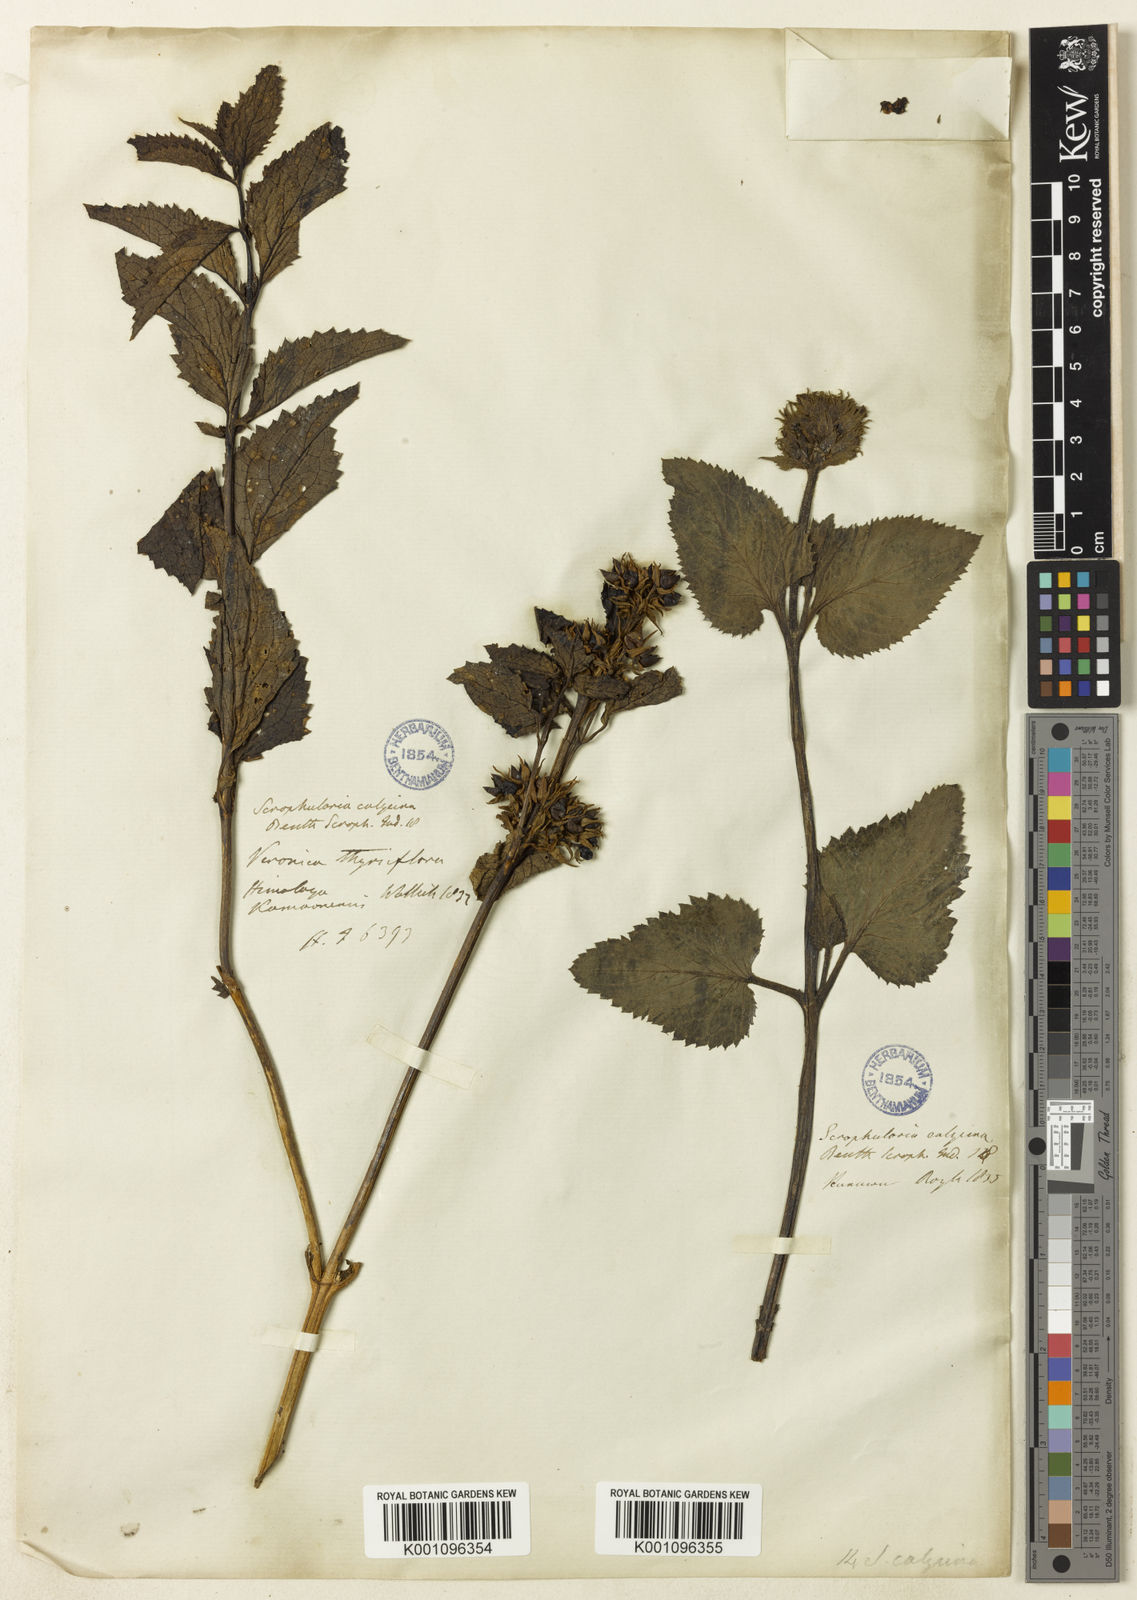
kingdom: Plantae
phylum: Tracheophyta
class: Magnoliopsida
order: Lamiales
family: Scrophulariaceae
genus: Scrophularia
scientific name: Scrophularia calycina
